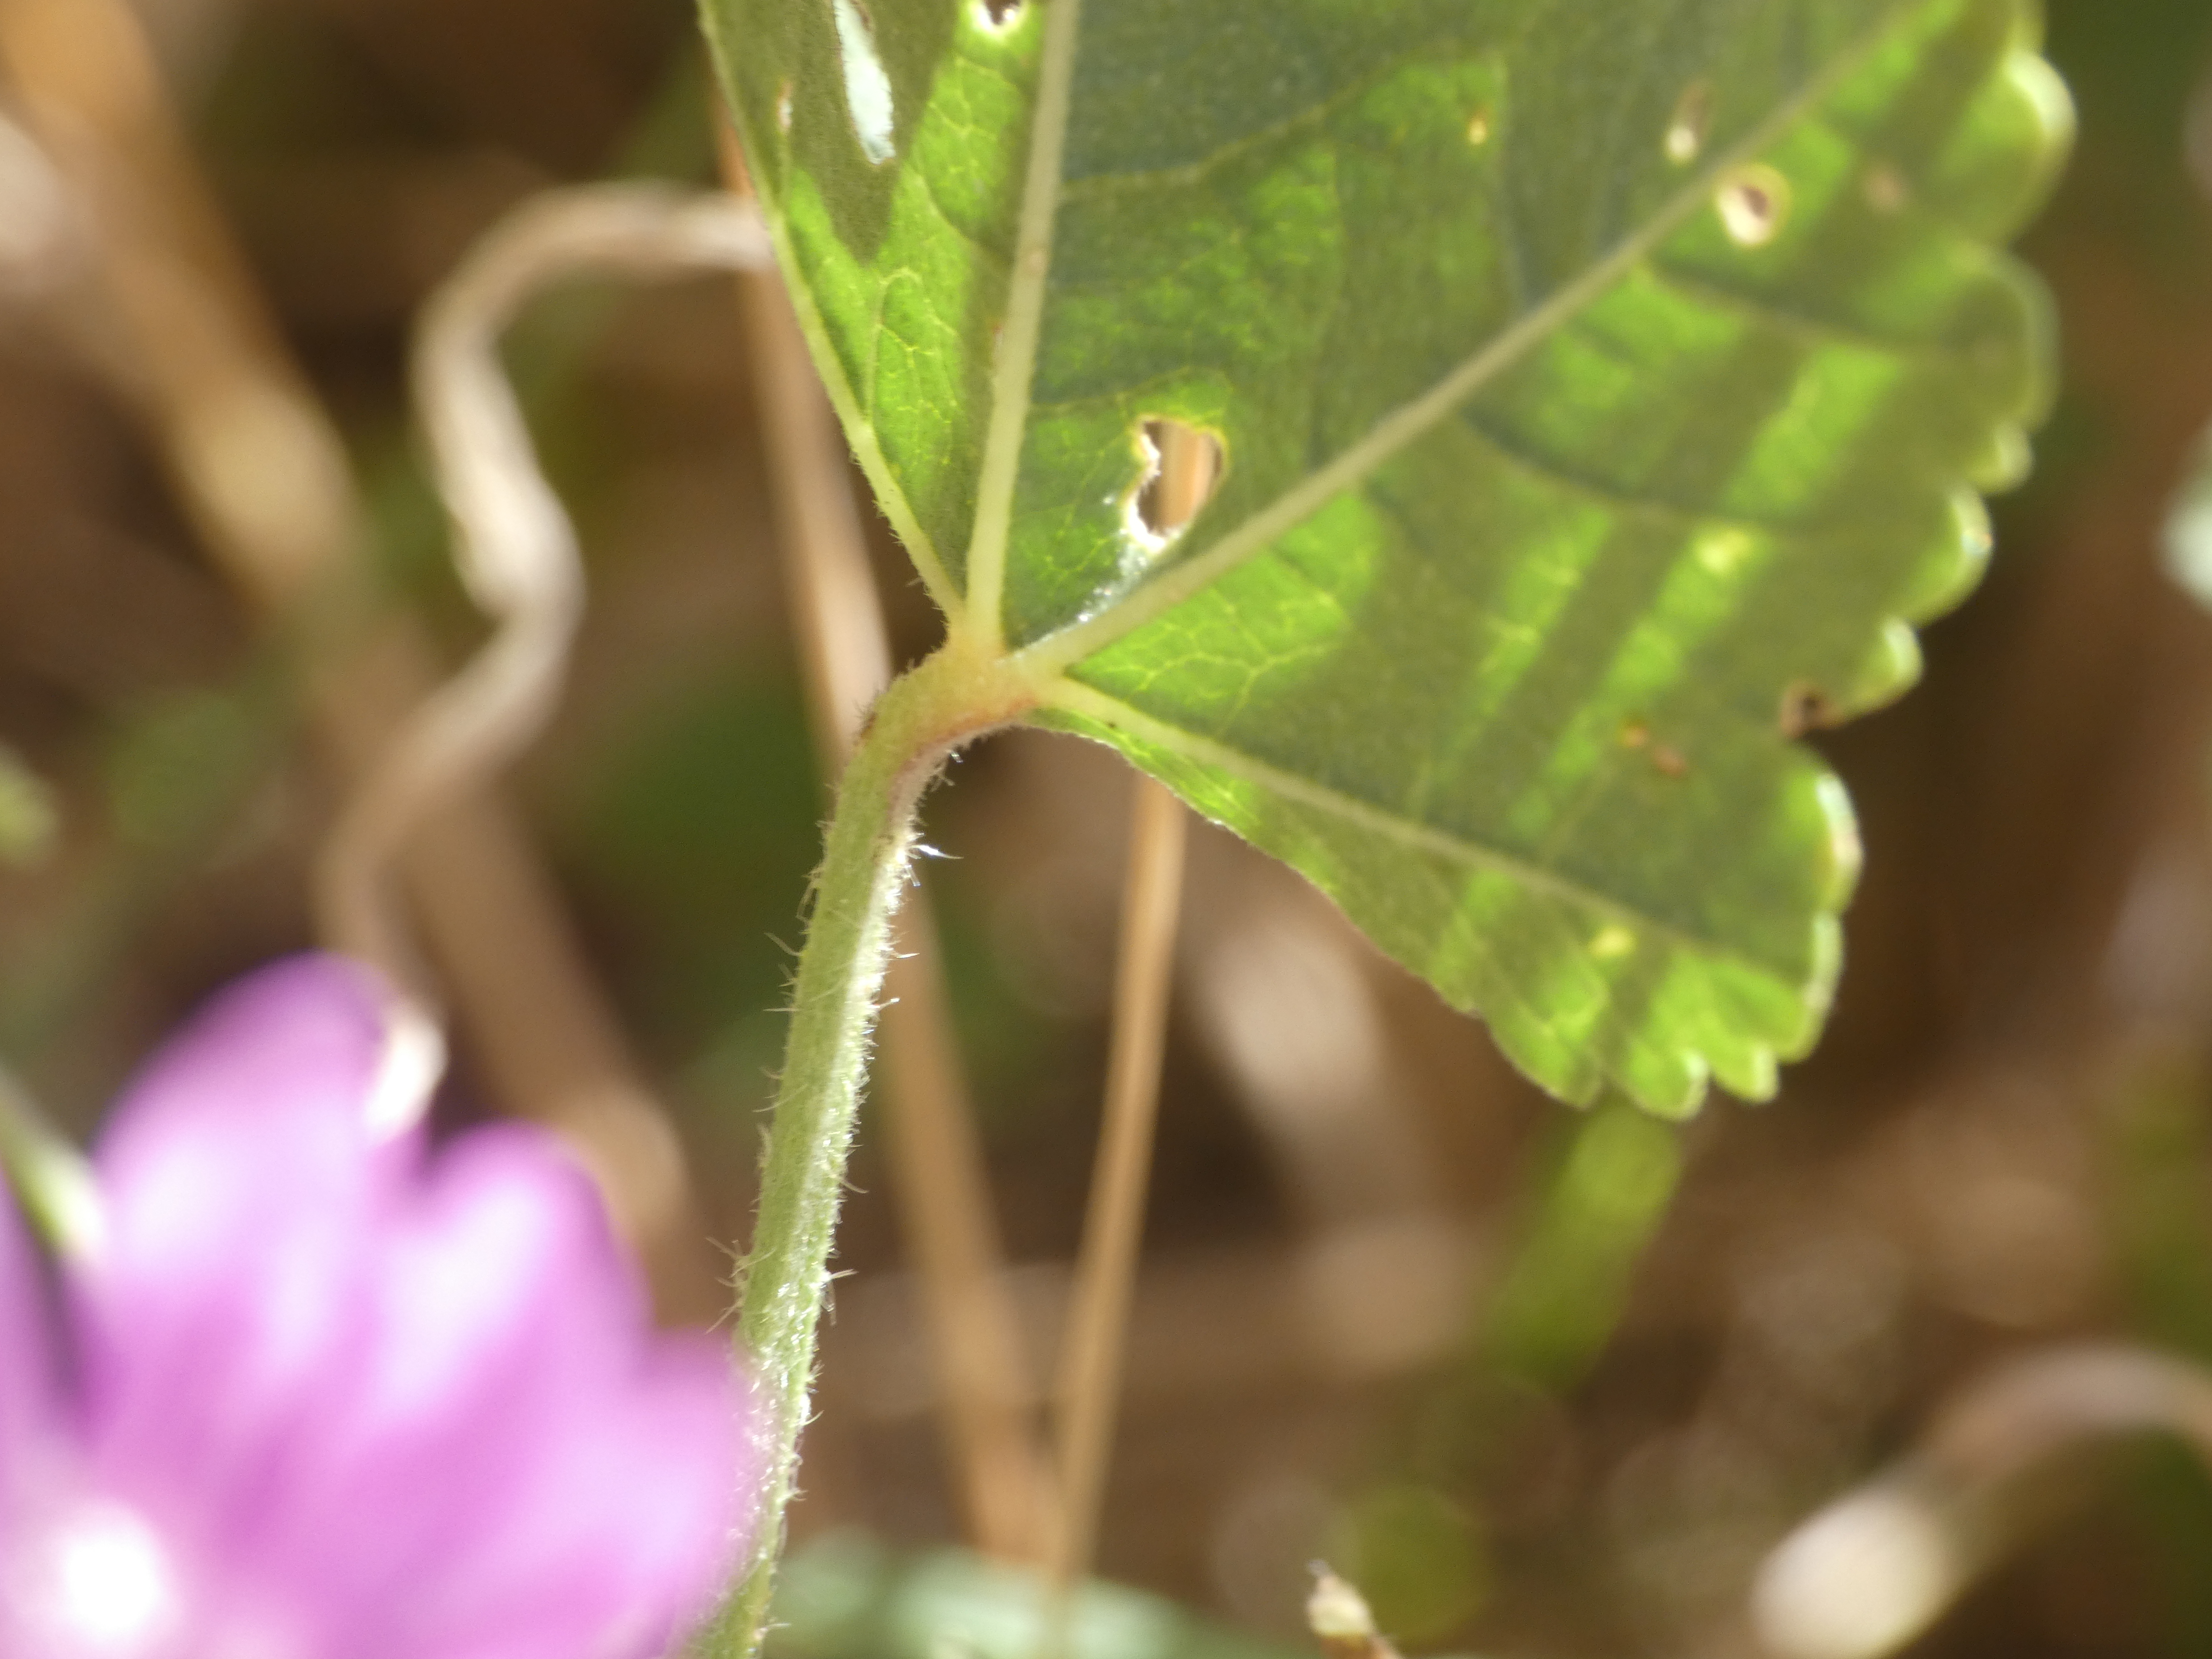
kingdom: Plantae
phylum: Tracheophyta
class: Magnoliopsida
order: Malvales
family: Malvaceae
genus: Malva
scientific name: Malva sylvestris
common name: Almindelig katost
